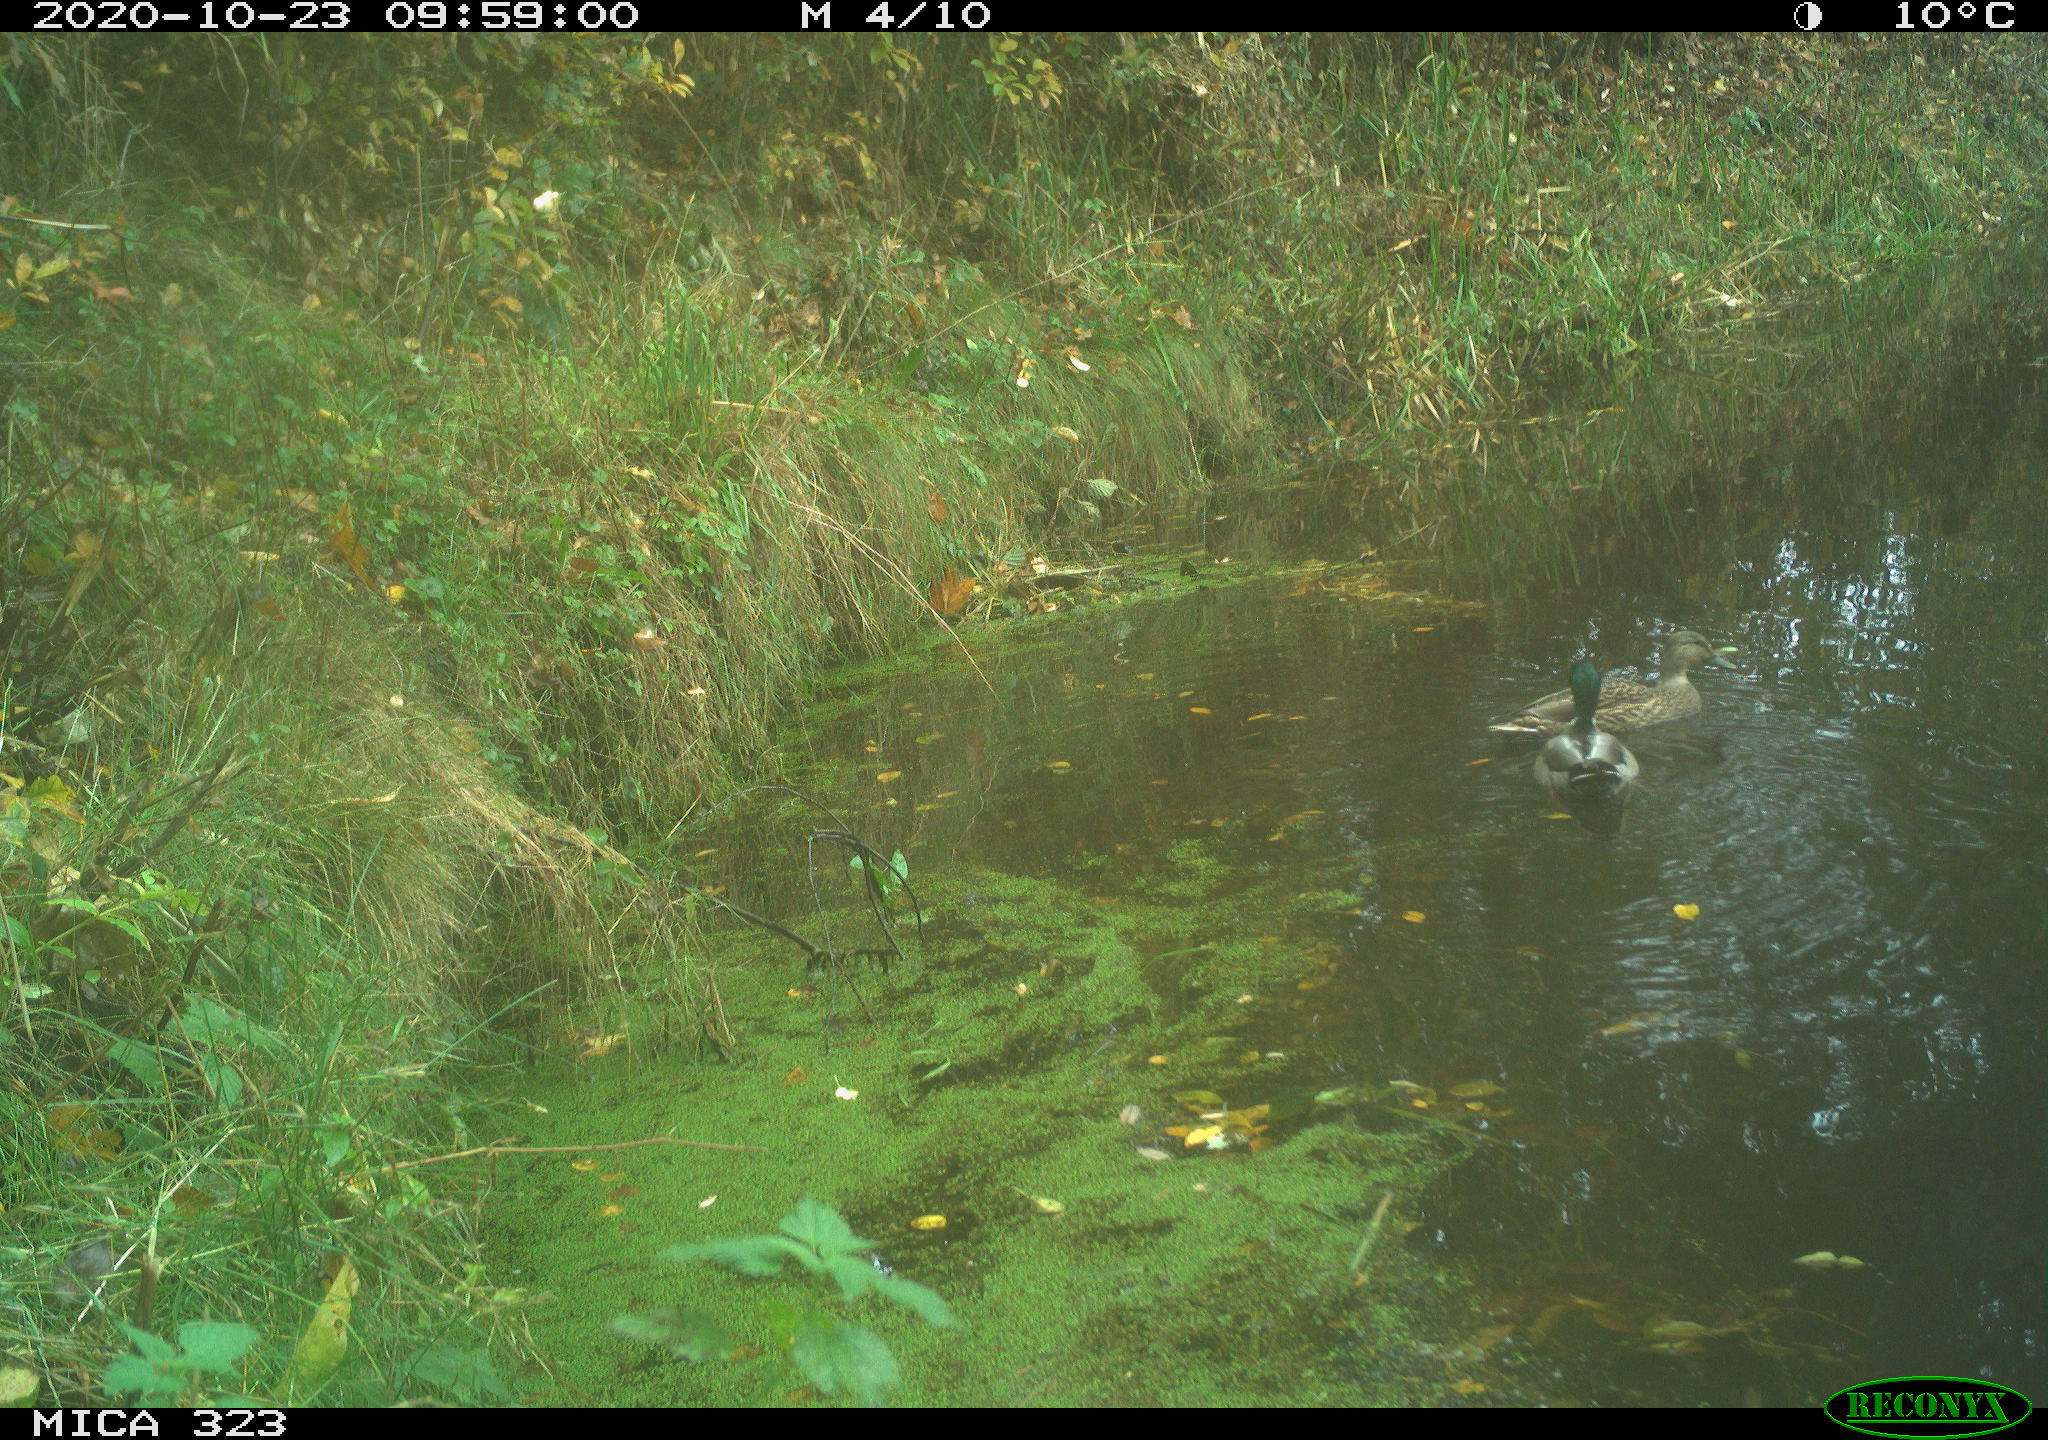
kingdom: Animalia
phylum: Chordata
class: Aves
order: Anseriformes
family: Anatidae
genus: Anas
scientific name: Anas platyrhynchos
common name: Mallard
